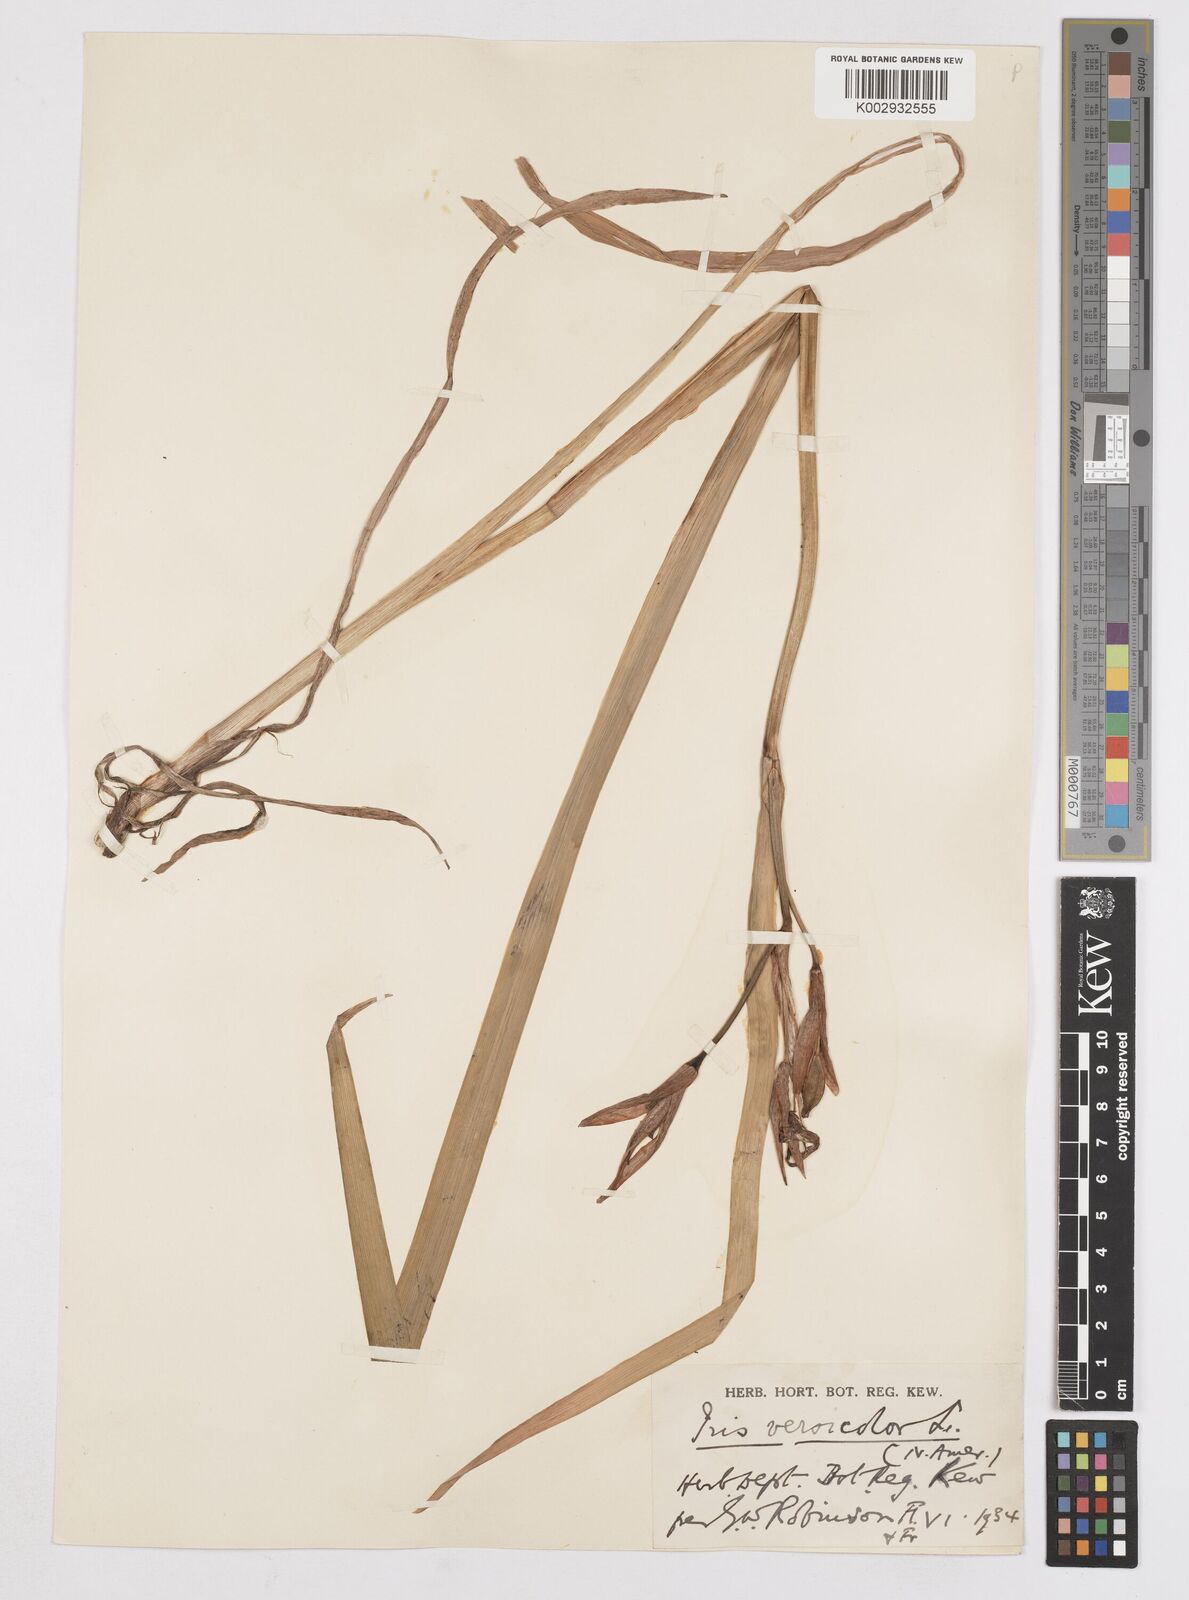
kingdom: Plantae
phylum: Tracheophyta
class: Liliopsida
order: Asparagales
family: Iridaceae
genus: Iris
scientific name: Iris versicolor
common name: Purple iris
